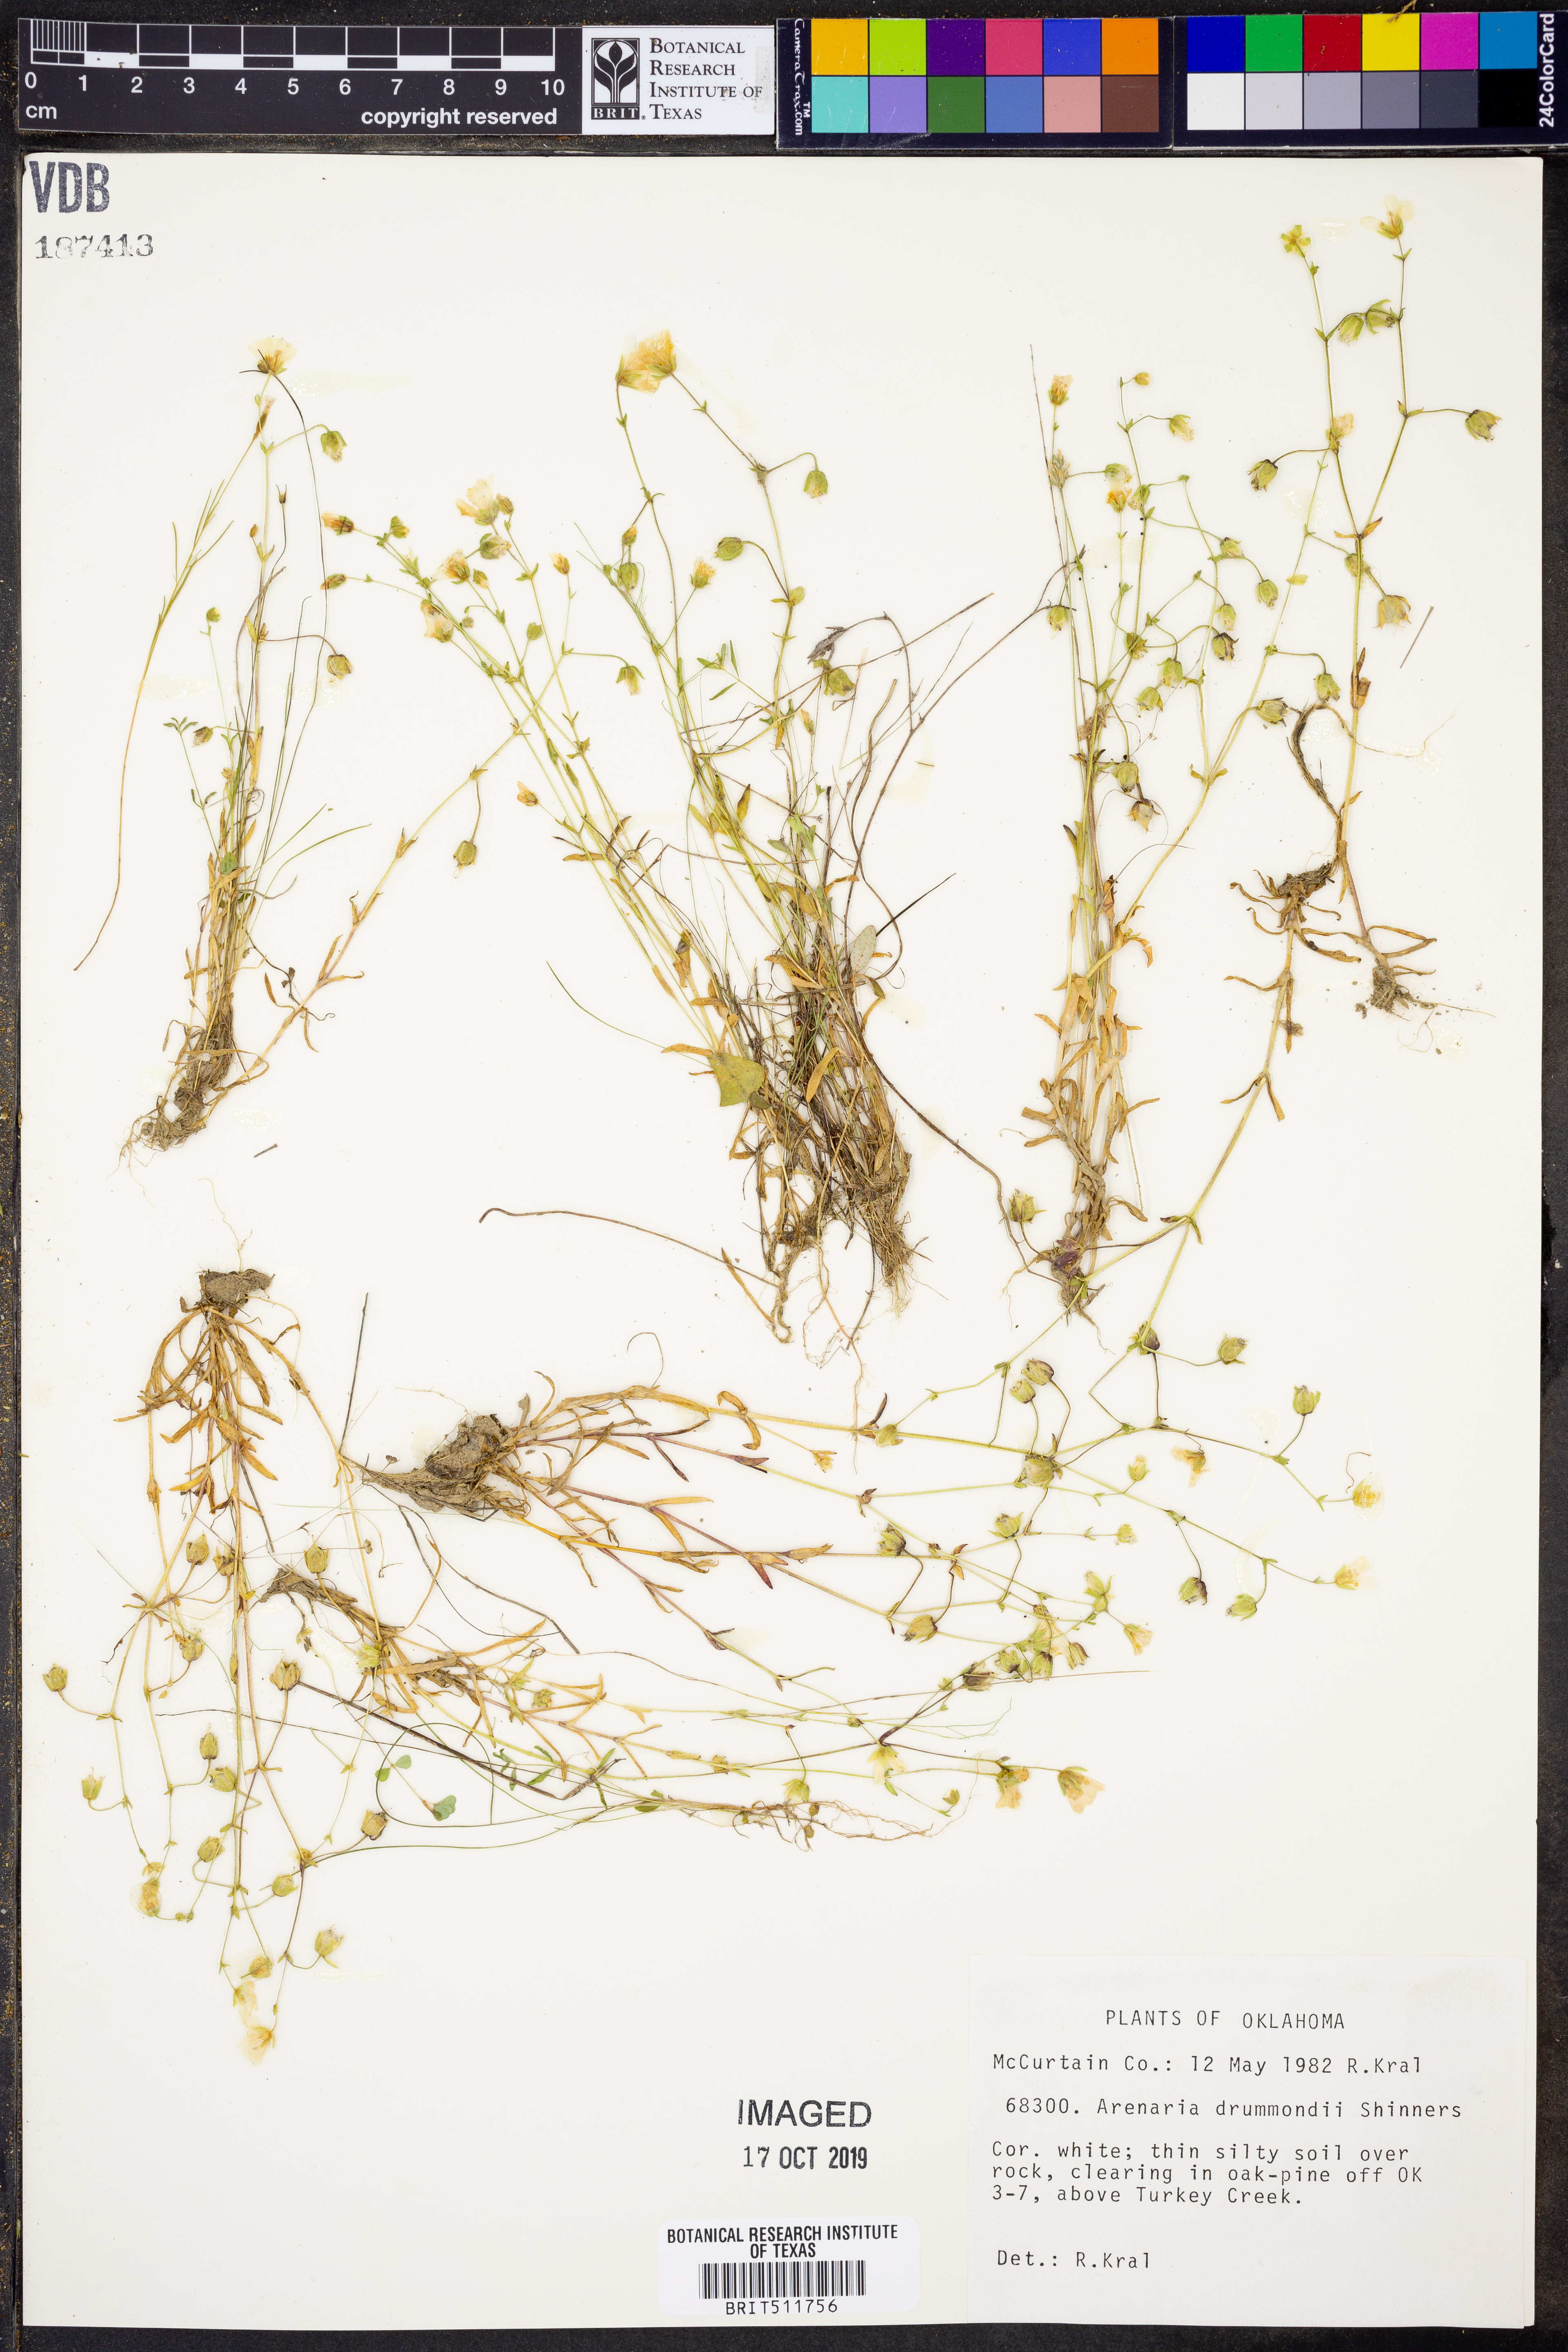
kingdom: Plantae
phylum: Tracheophyta
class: Magnoliopsida
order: Caryophyllales
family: Caryophyllaceae
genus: Geocarpon
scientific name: Geocarpon nuttallii
